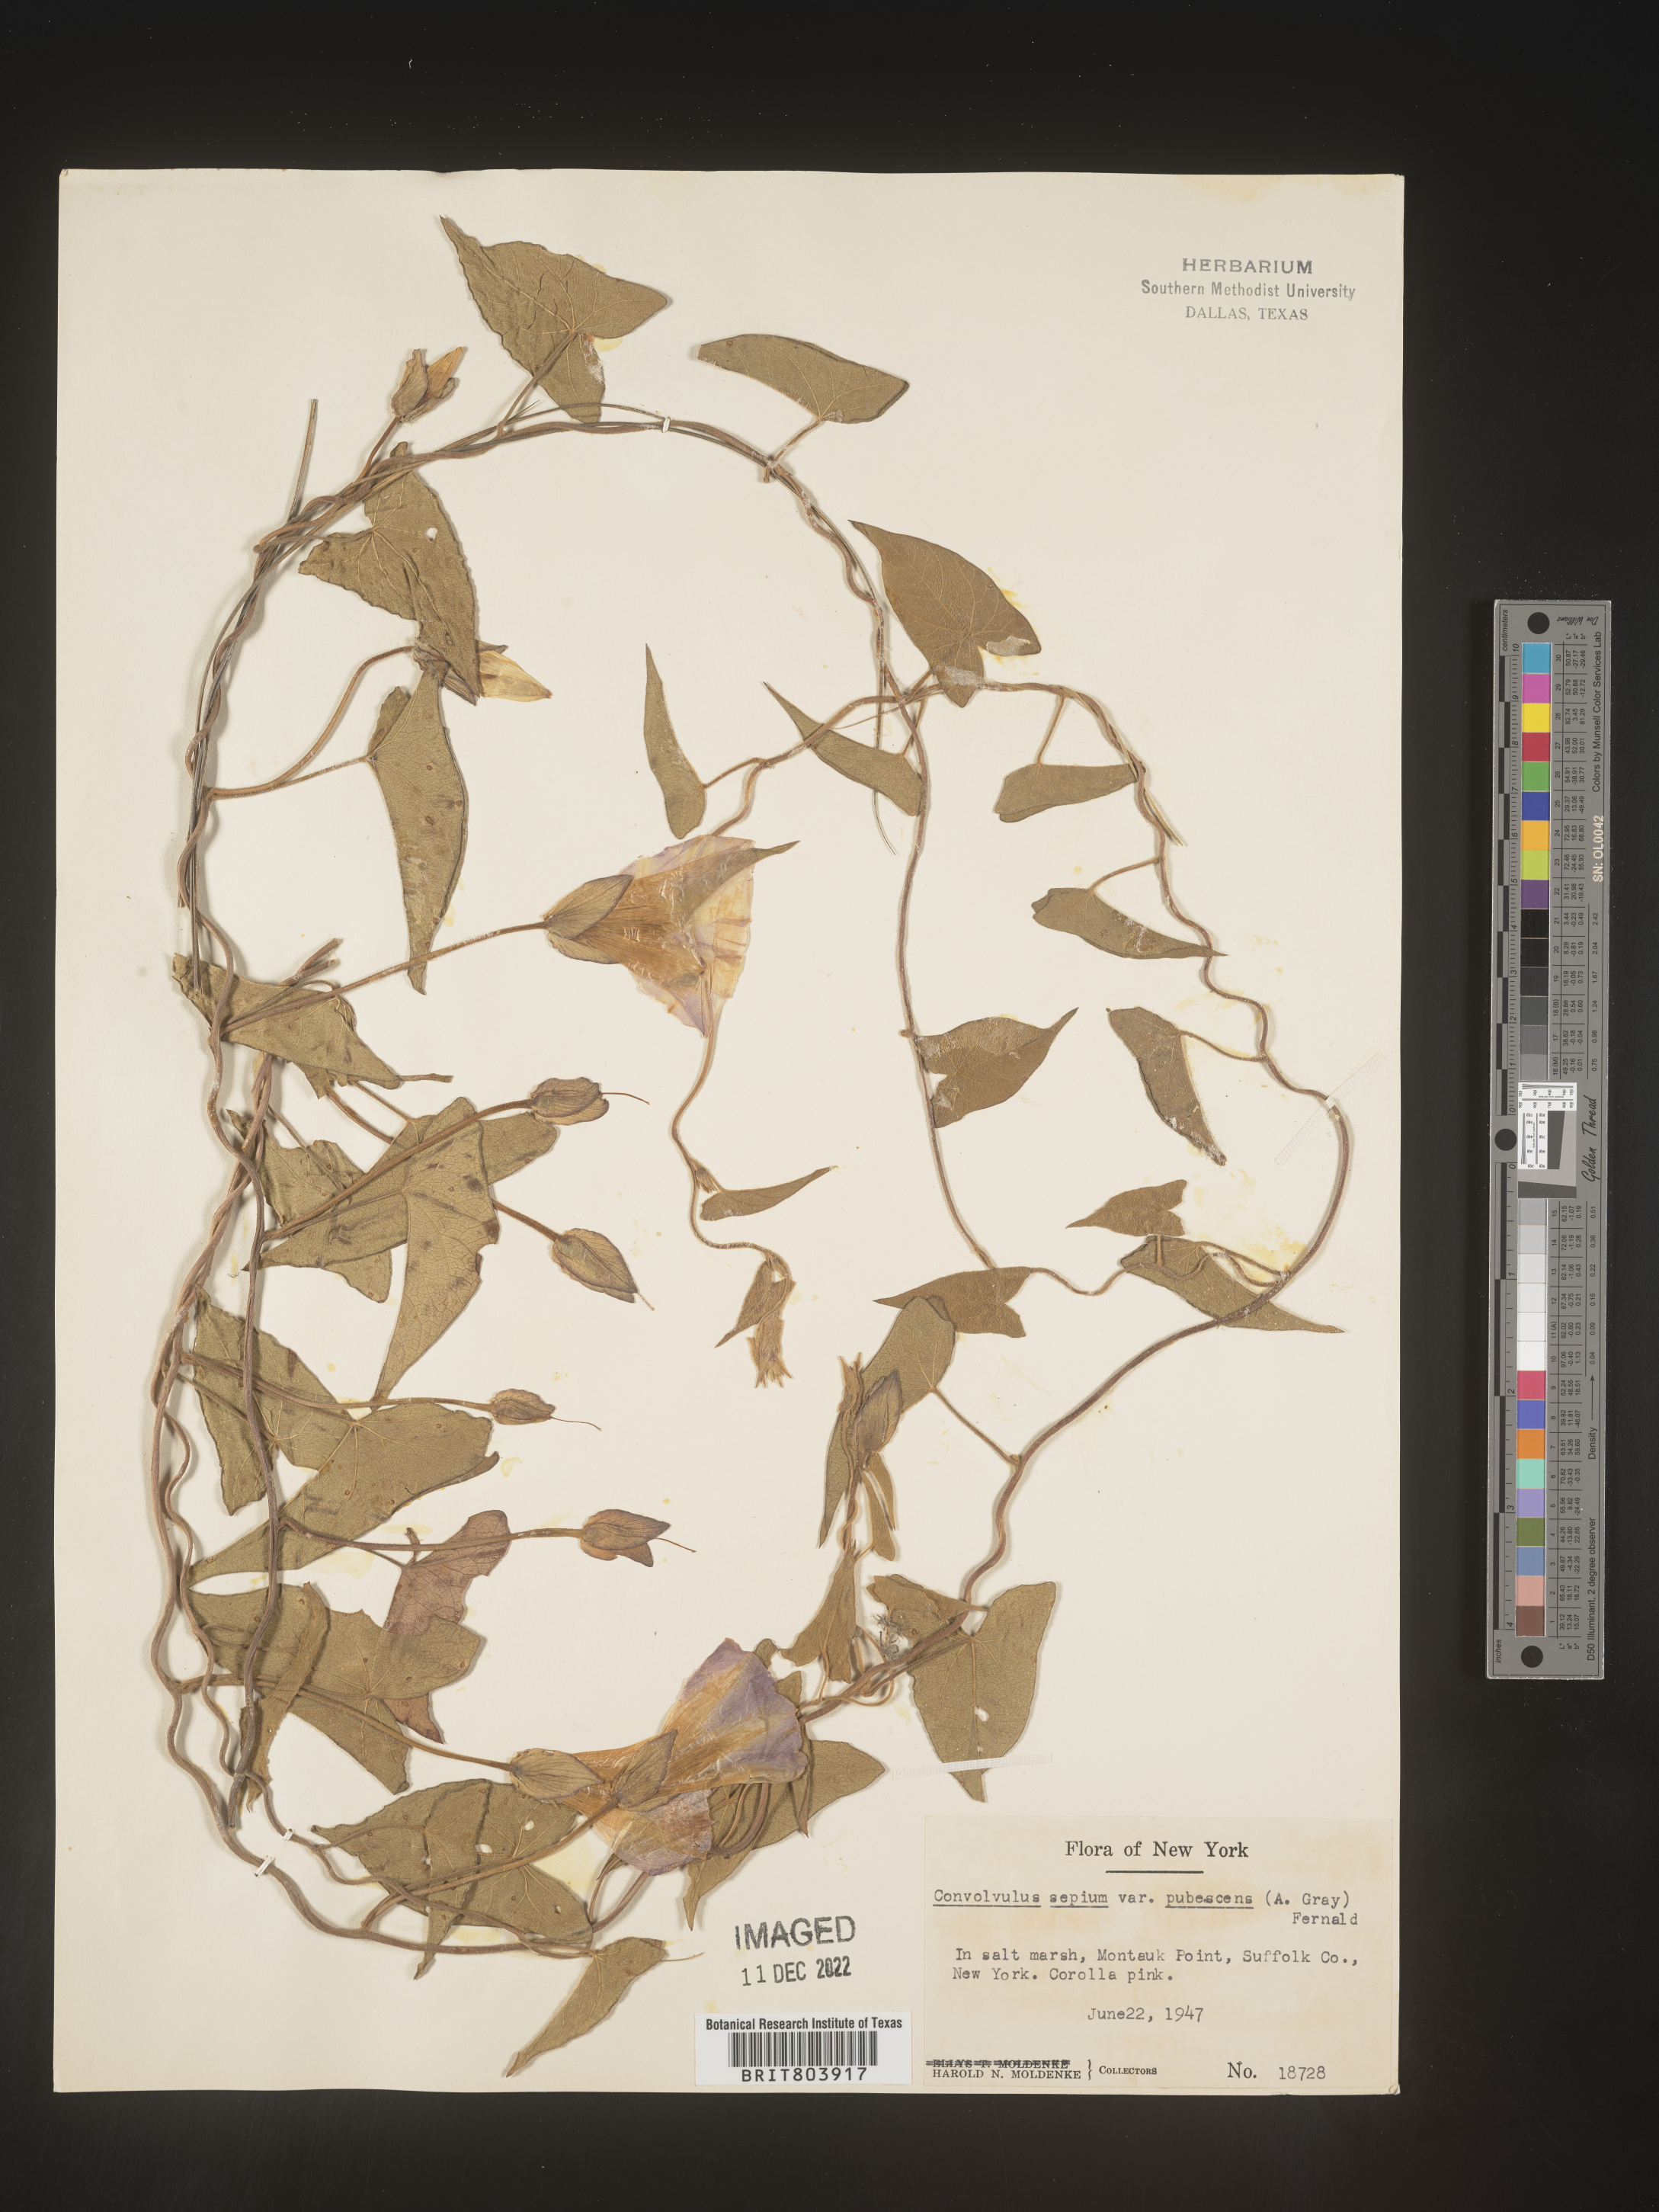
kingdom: Plantae
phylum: Tracheophyta
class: Magnoliopsida
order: Solanales
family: Convolvulaceae
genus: Calystegia
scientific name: Calystegia sepium
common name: Hedge bindweed
